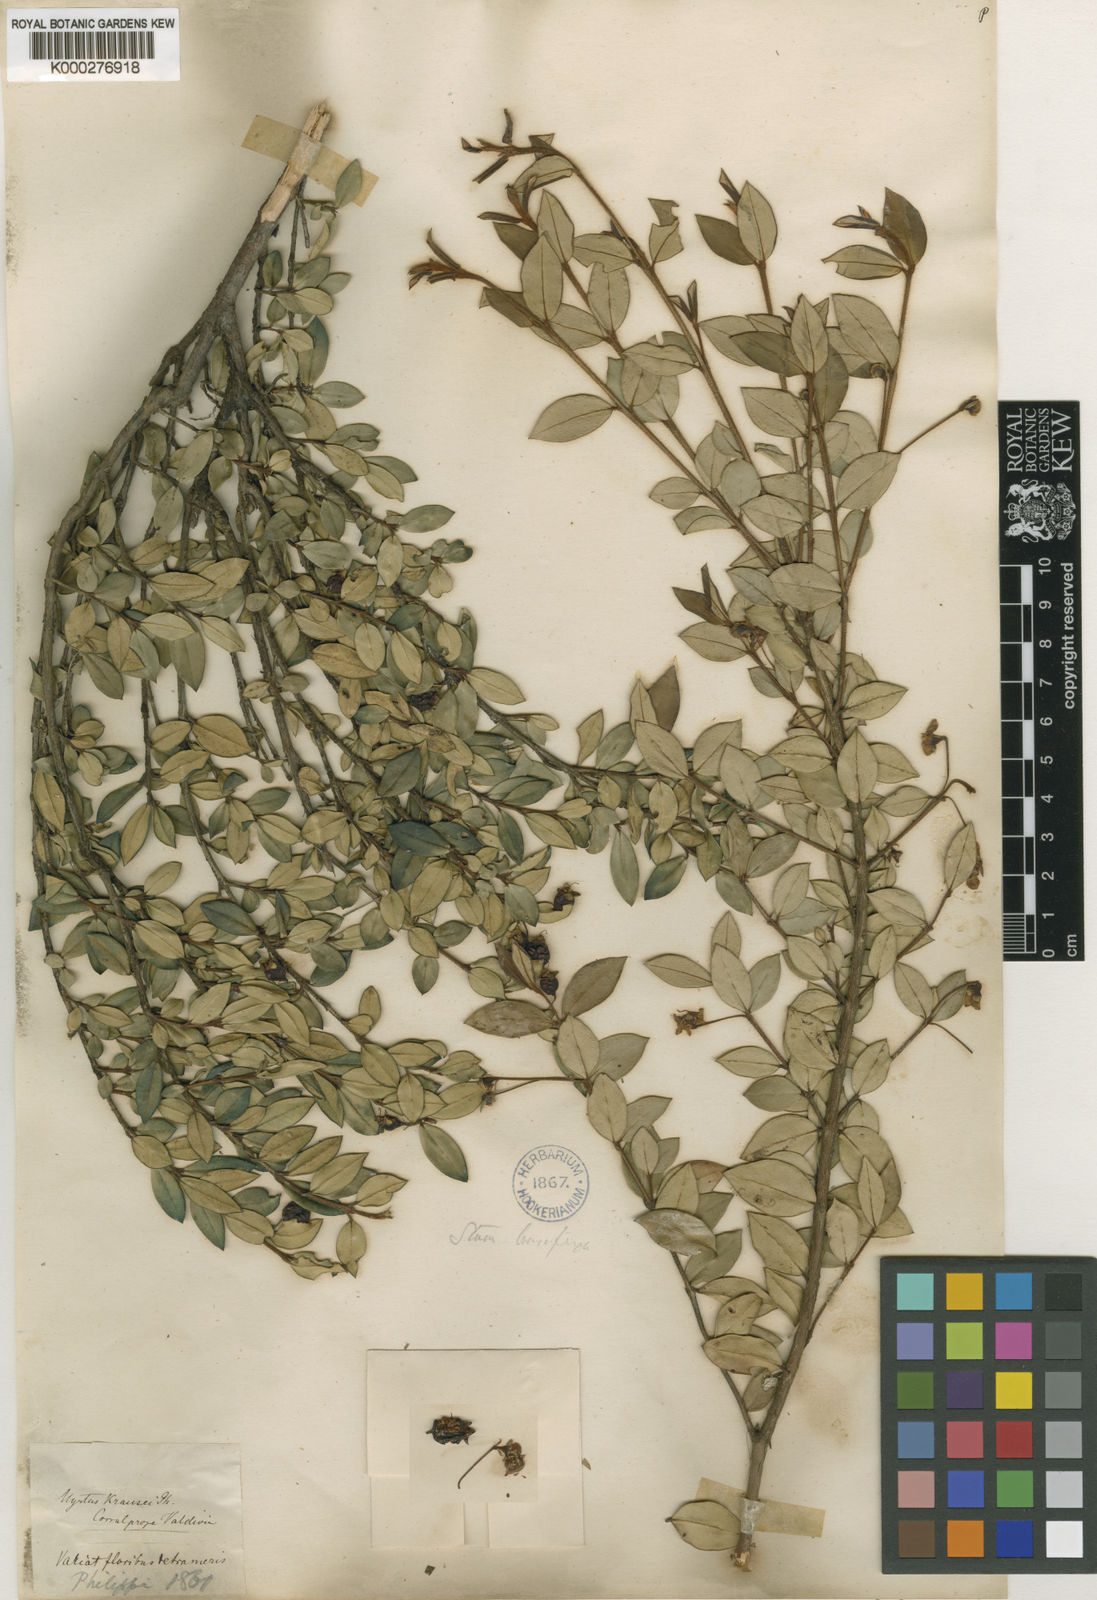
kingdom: Plantae
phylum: Tracheophyta
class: Magnoliopsida
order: Myrtales
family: Myrtaceae
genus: Ugni
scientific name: Ugni candollei
